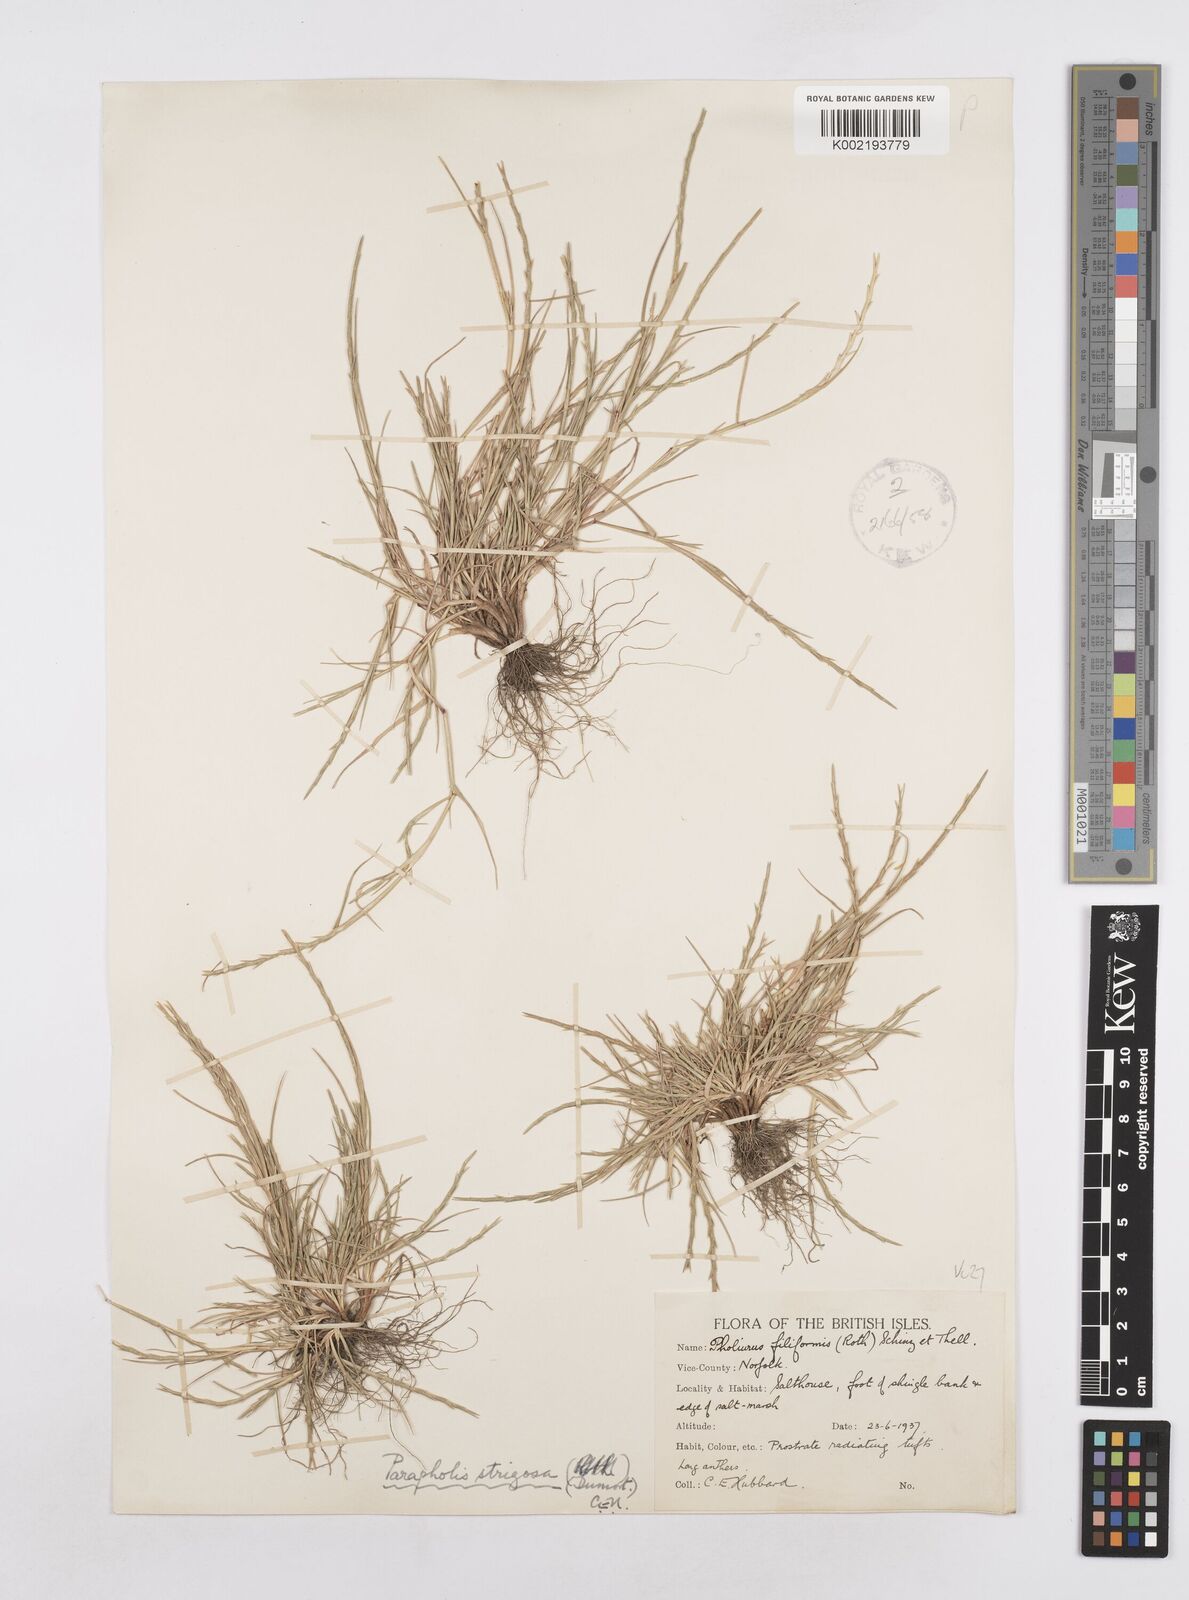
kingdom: Plantae
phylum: Tracheophyta
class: Liliopsida
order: Poales
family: Poaceae
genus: Parapholis
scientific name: Parapholis strigosa
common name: Hard-grass
